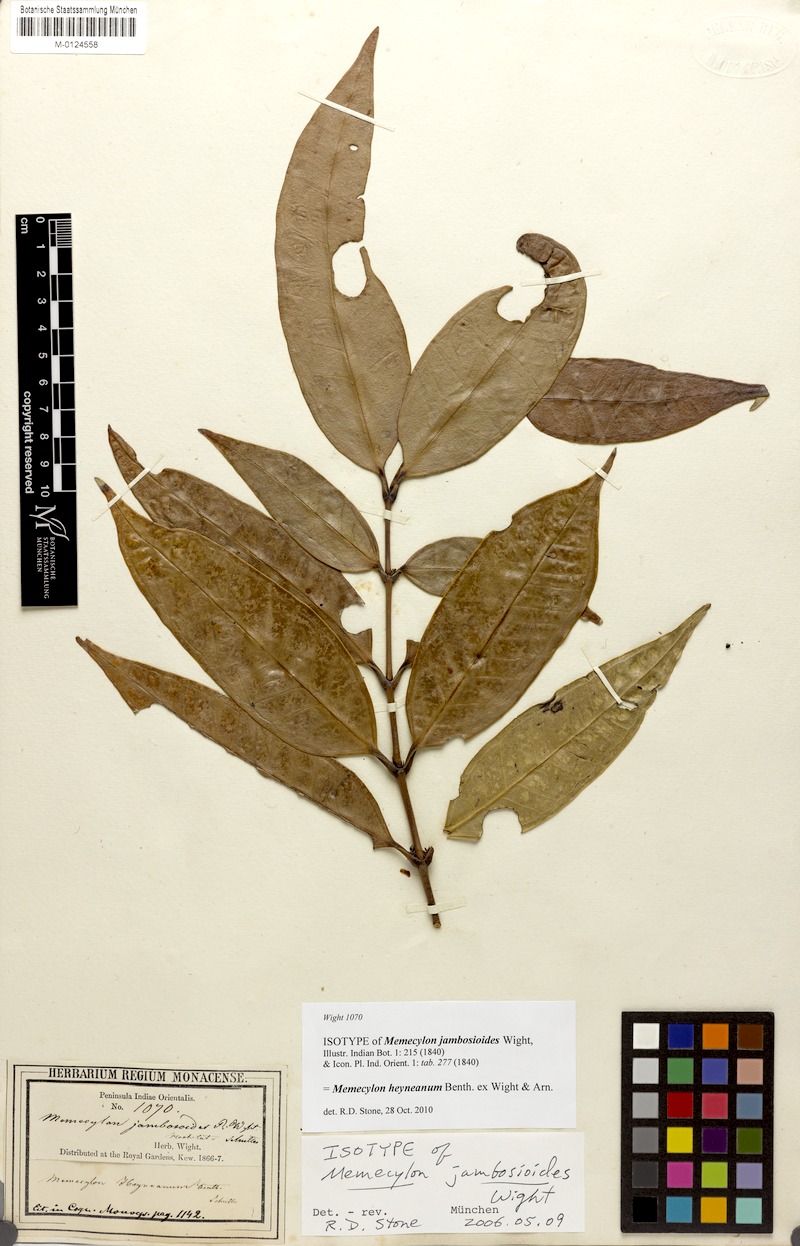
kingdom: Plantae
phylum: Tracheophyta
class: Magnoliopsida
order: Myrtales
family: Melastomataceae
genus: Memecylon
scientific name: Memecylon heyneanum
